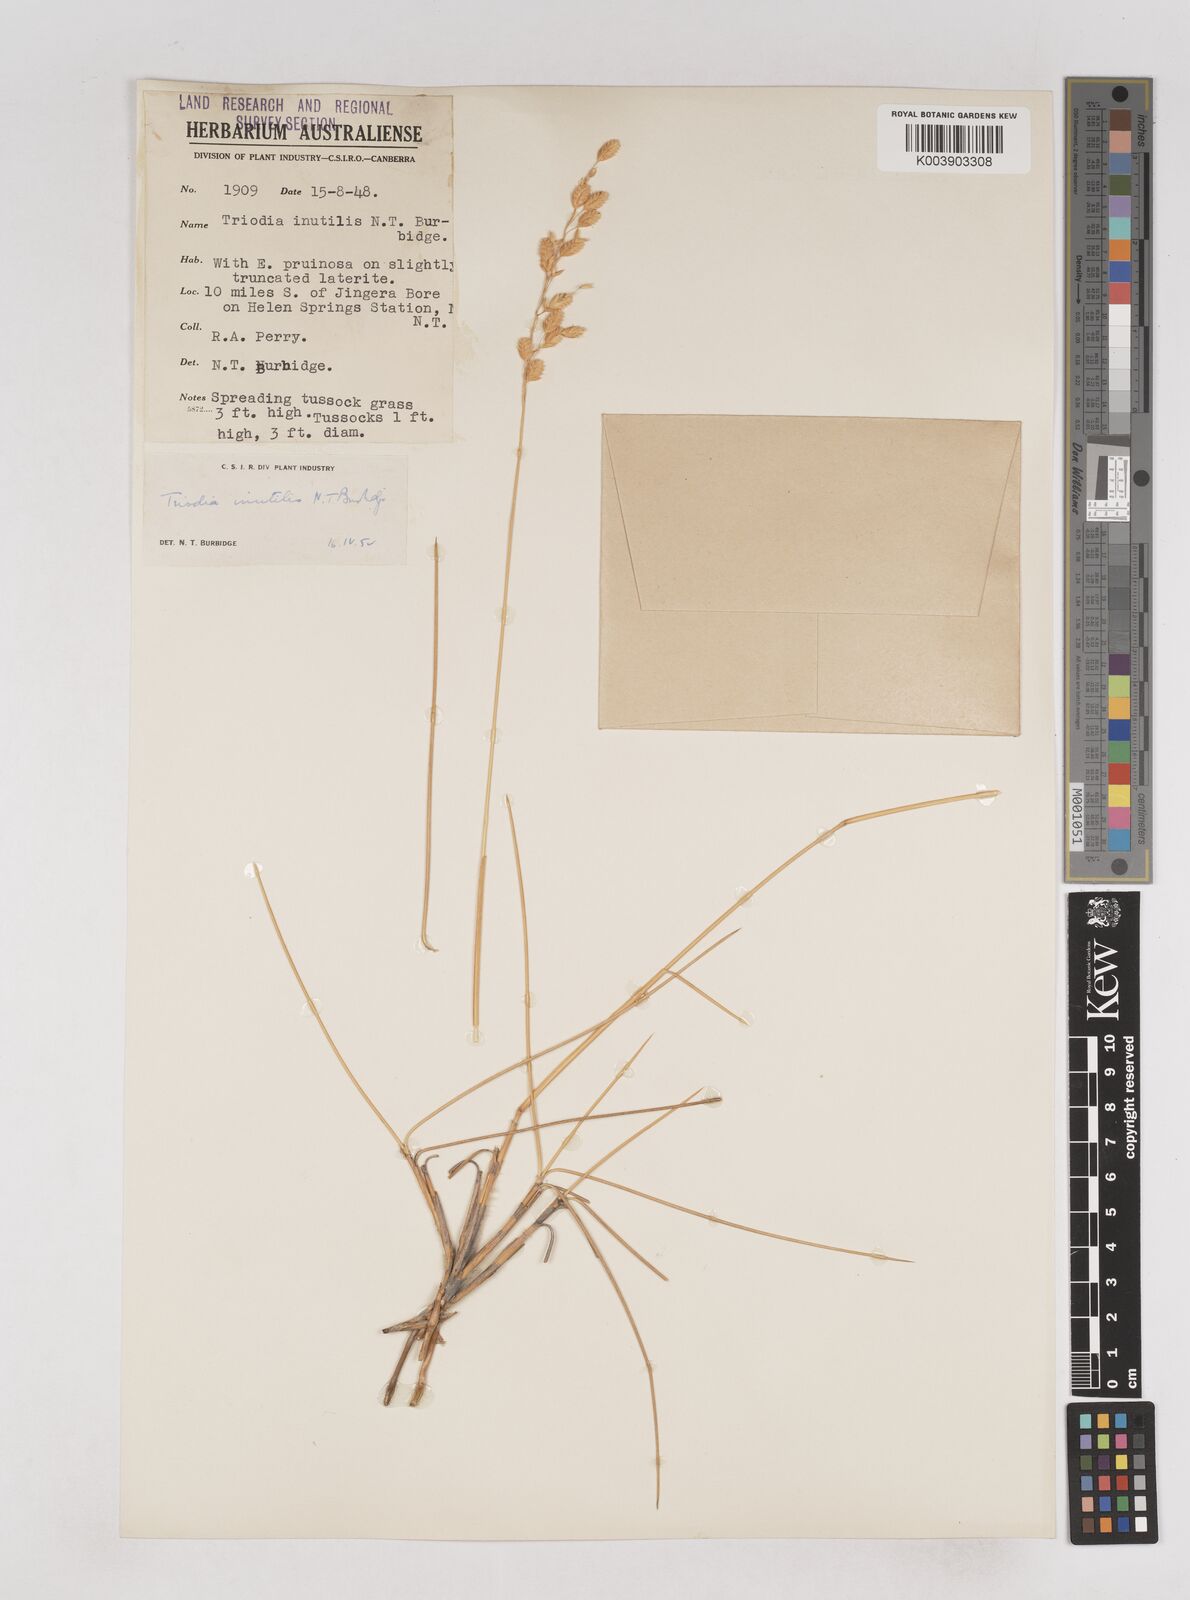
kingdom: Plantae
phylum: Tracheophyta
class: Liliopsida
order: Poales
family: Poaceae
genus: Triodia
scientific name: Triodia inutilis
